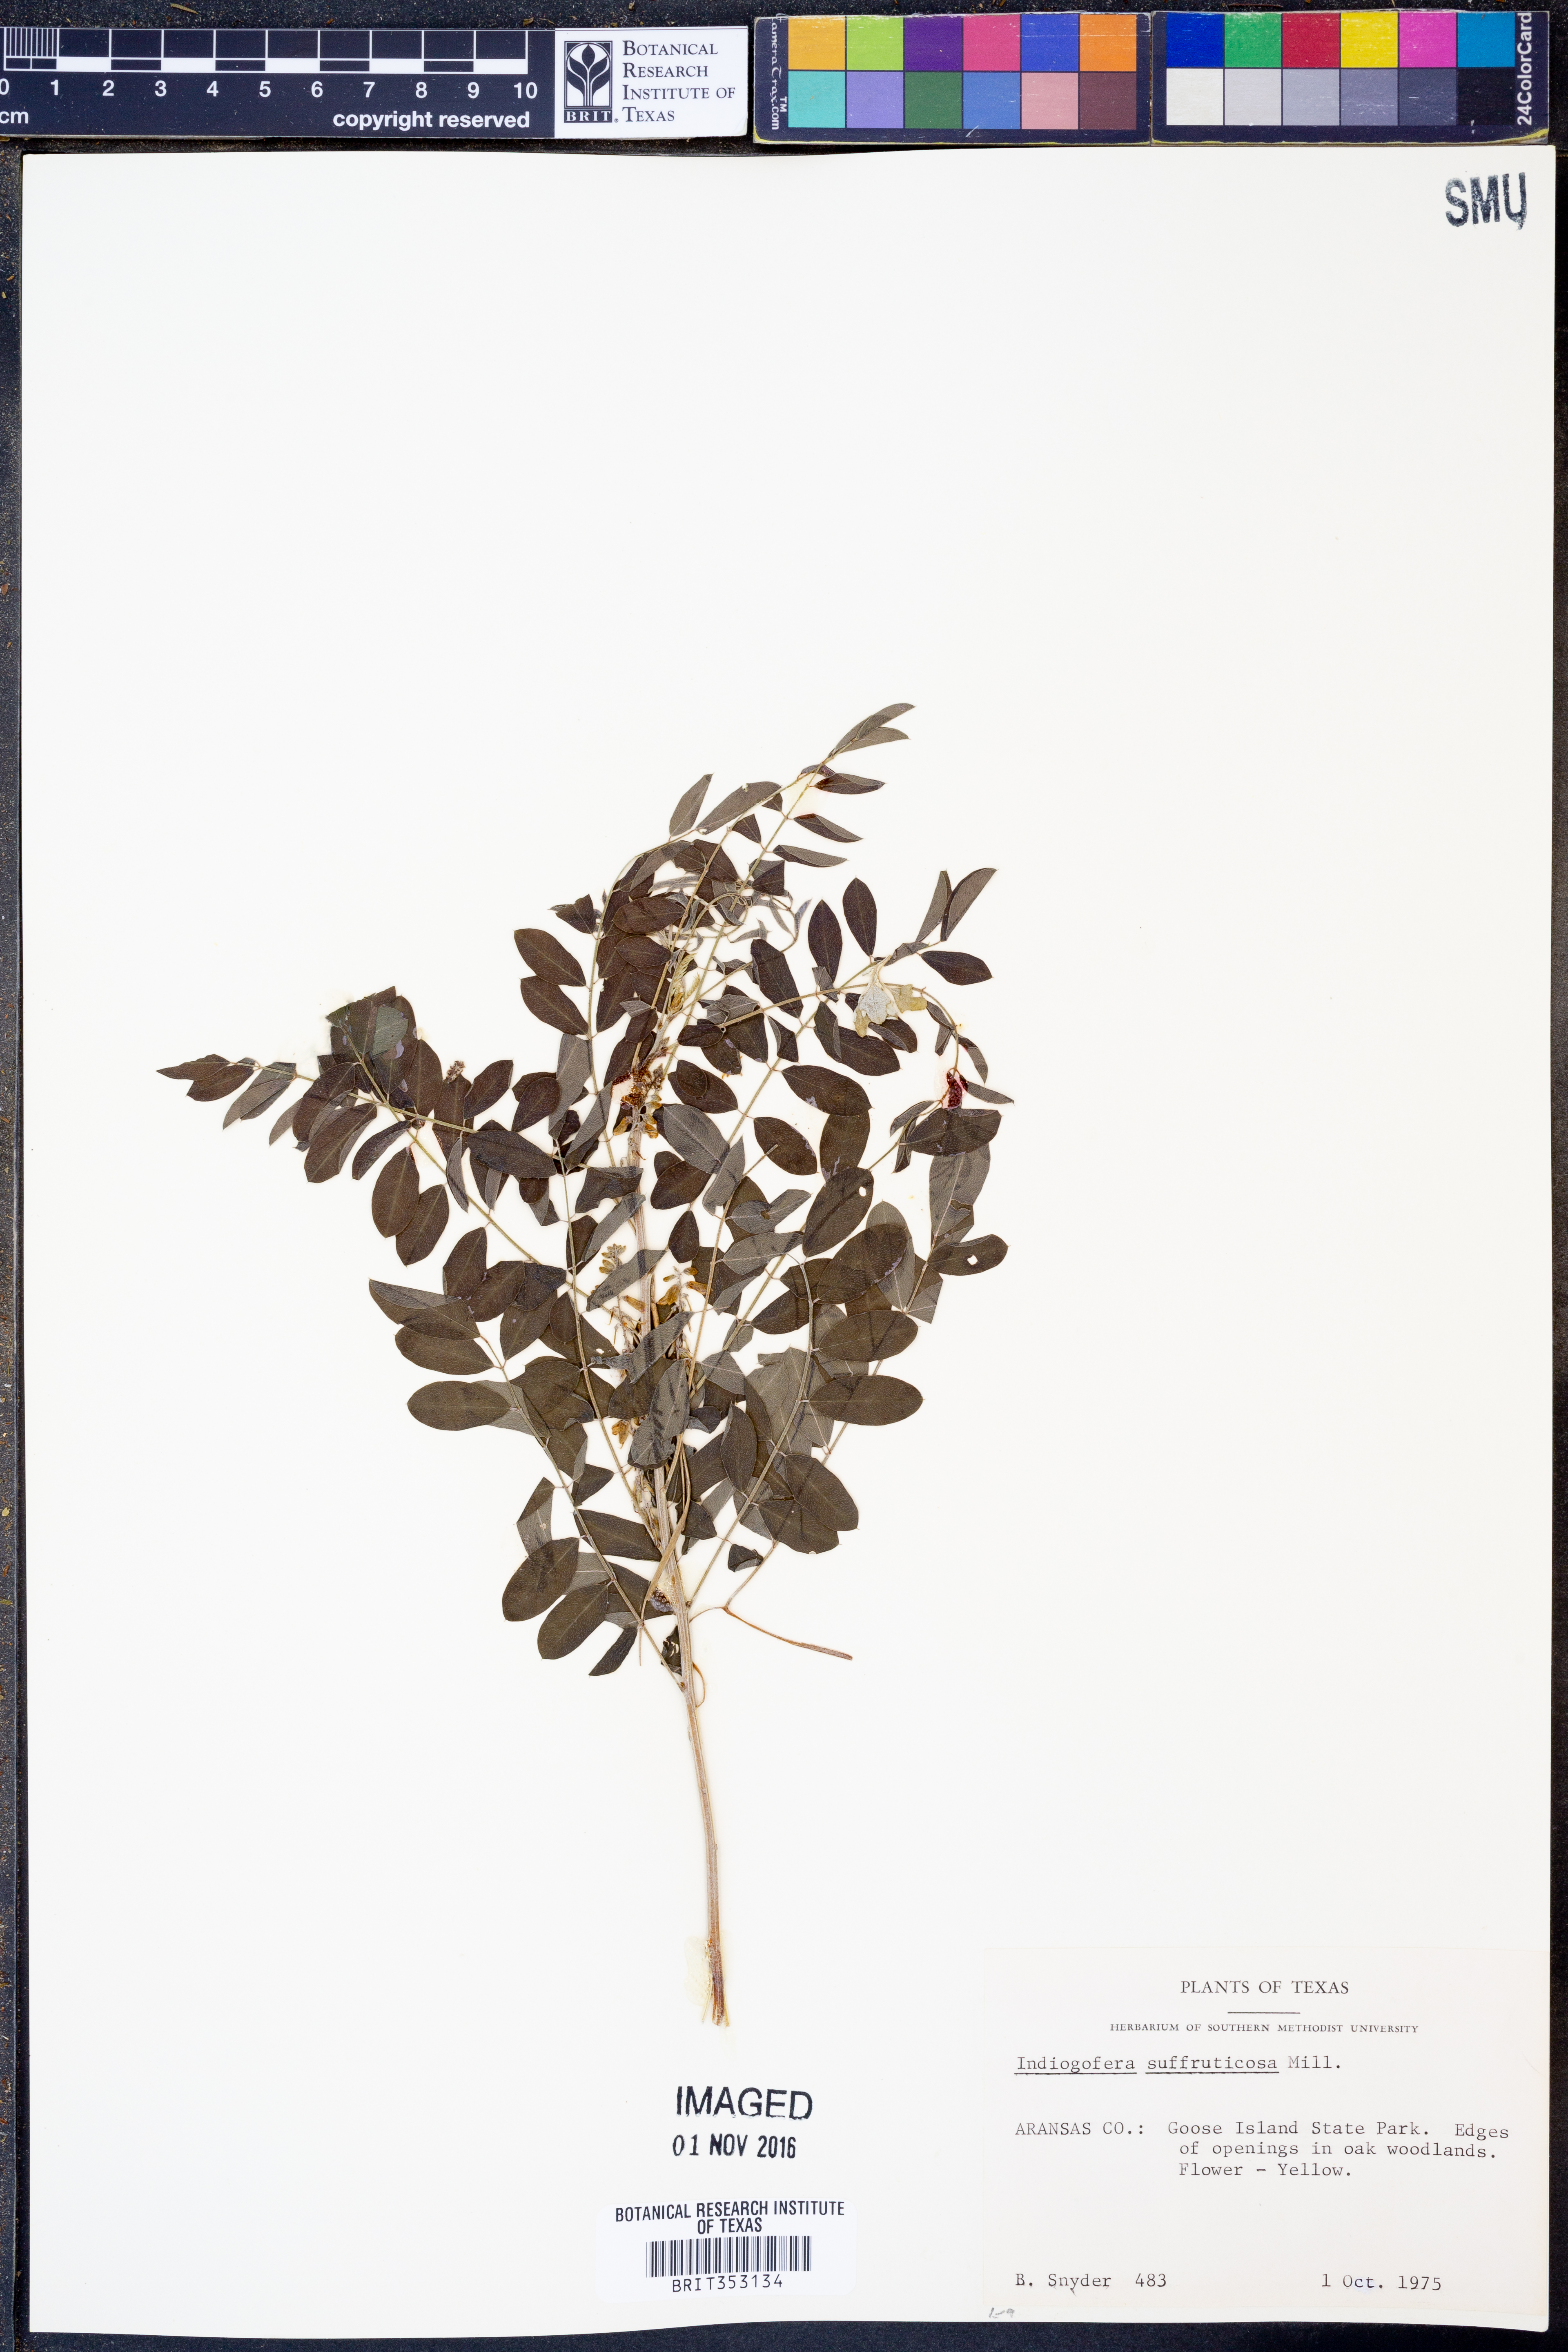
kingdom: Plantae
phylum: Tracheophyta
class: Magnoliopsida
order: Fabales
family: Fabaceae
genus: Indigofera
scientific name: Indigofera suffruticosa
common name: Anil de pasto
